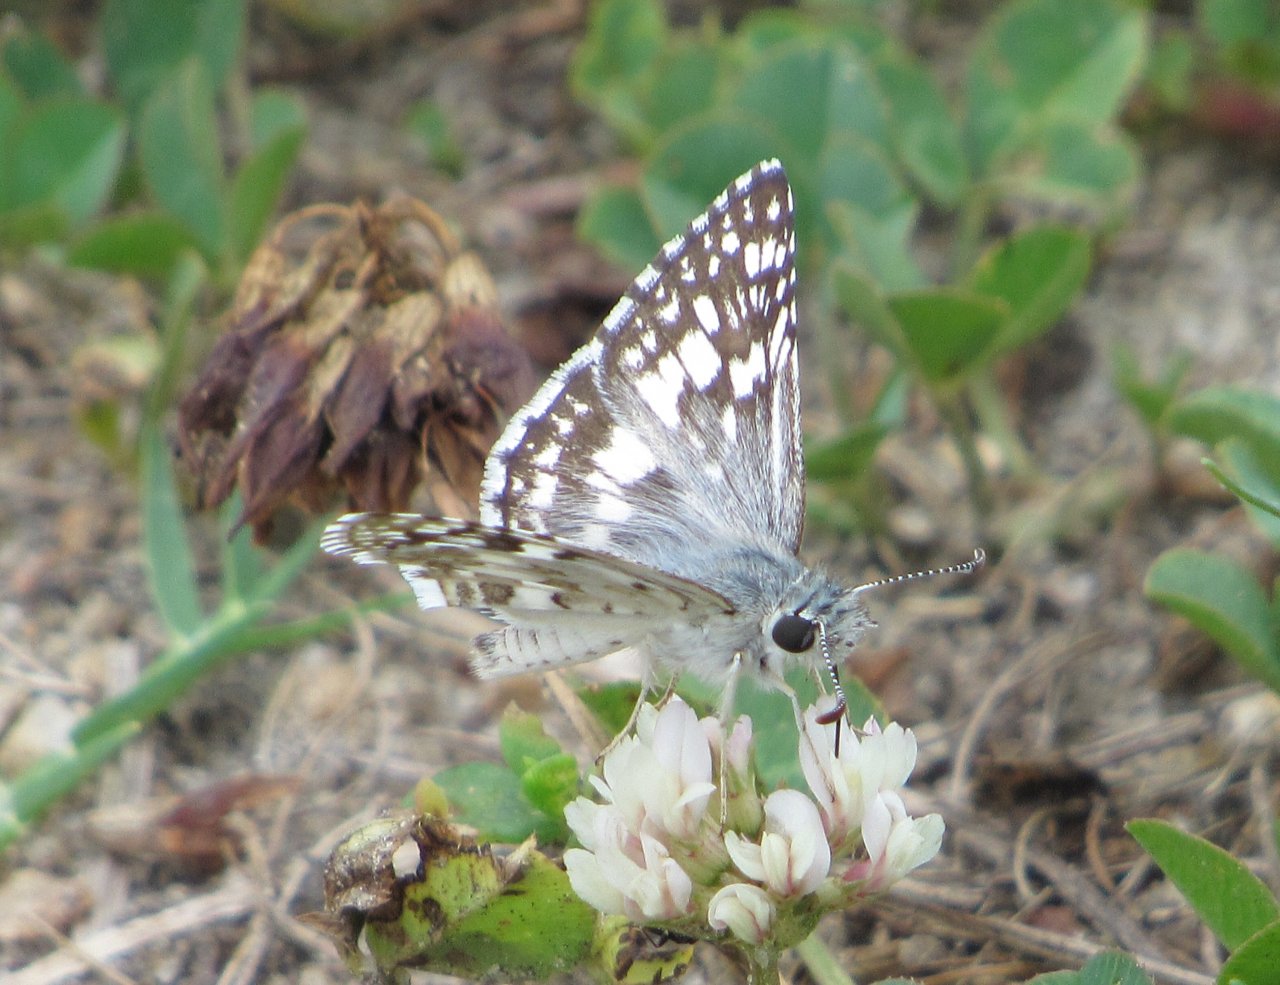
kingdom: Animalia
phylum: Arthropoda
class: Insecta
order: Lepidoptera
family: Hesperiidae
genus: Pyrgus
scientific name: Pyrgus communis
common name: Common Checkered-Skipper
